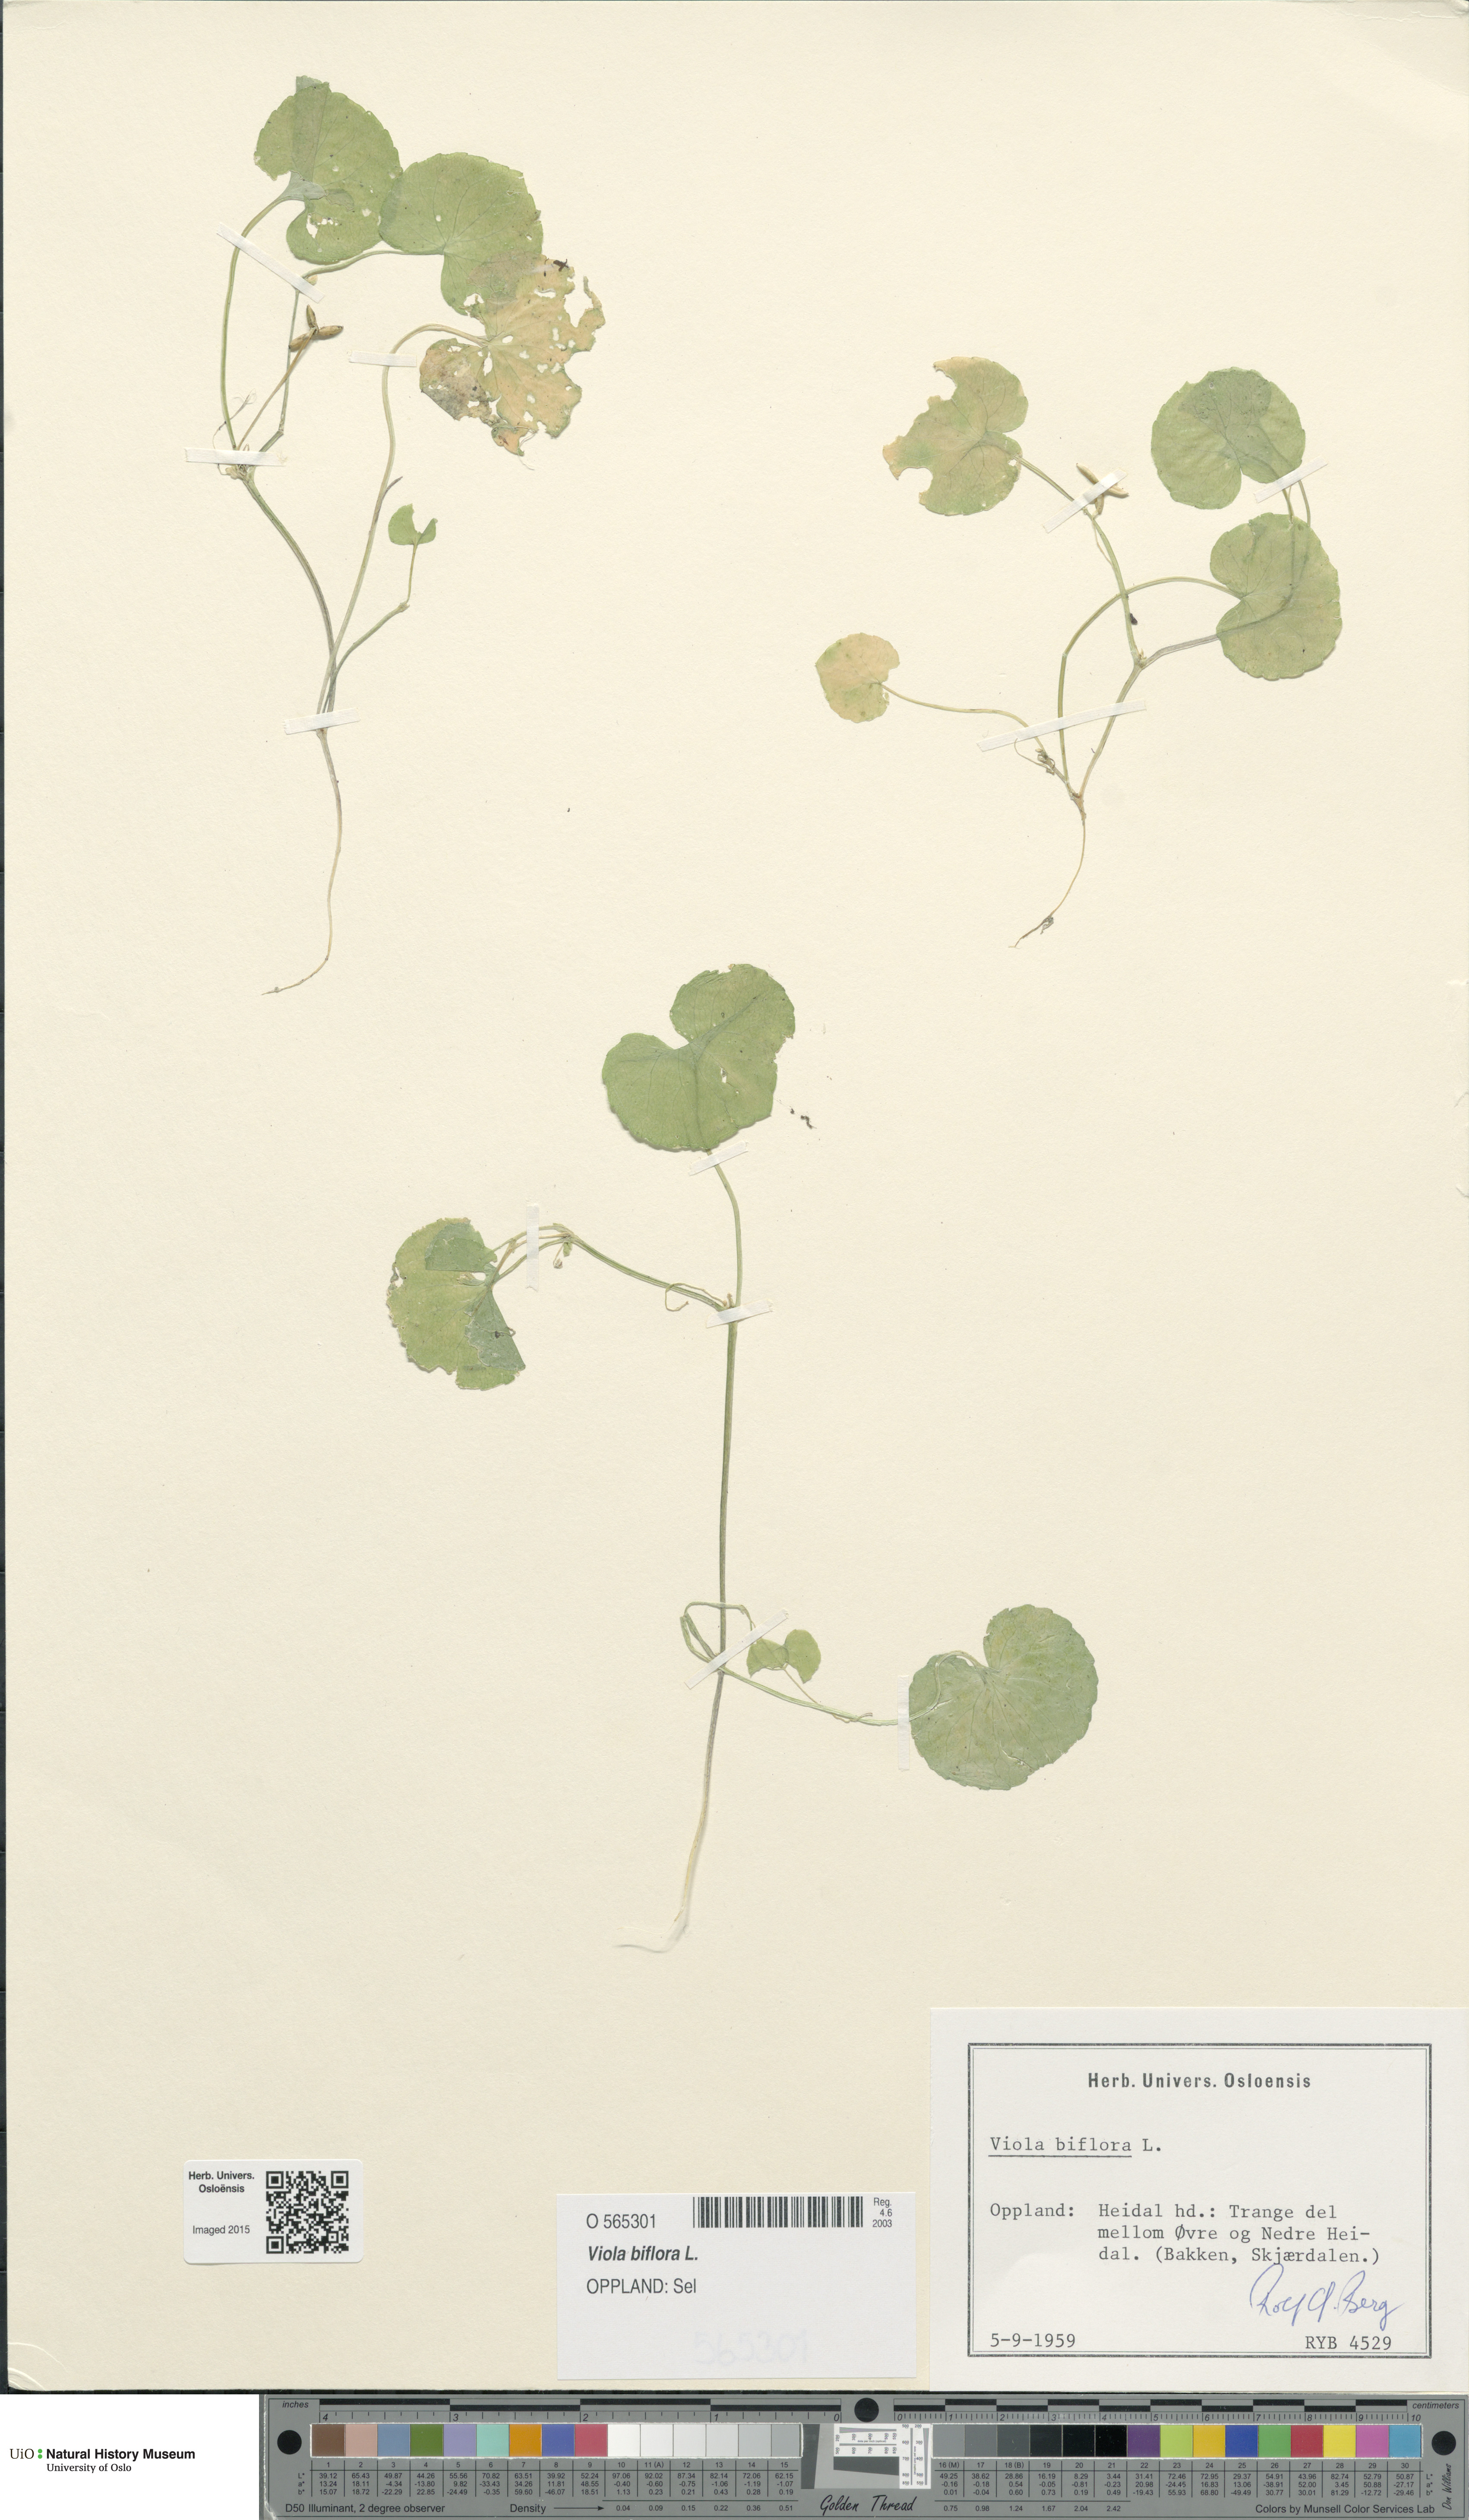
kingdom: Plantae
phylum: Tracheophyta
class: Magnoliopsida
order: Malpighiales
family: Violaceae
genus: Viola
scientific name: Viola biflora
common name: Alpine yellow violet
